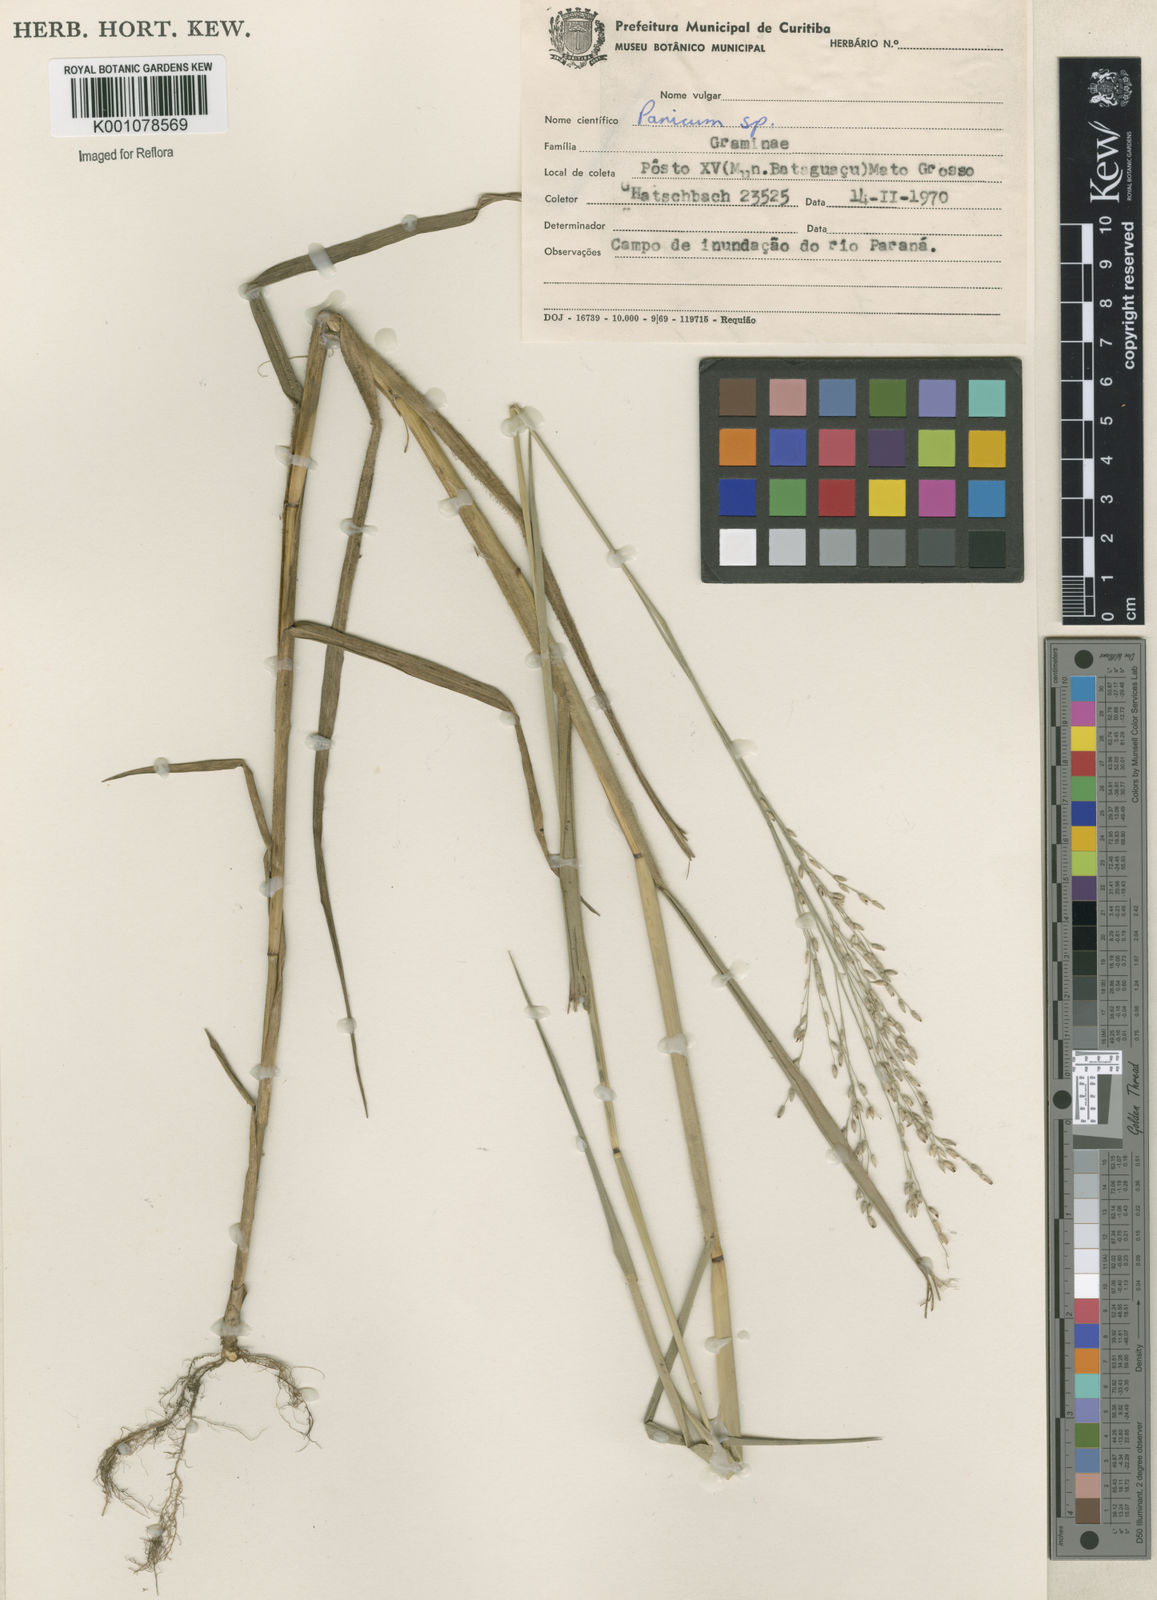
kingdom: Plantae
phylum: Tracheophyta
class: Liliopsida
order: Poales
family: Poaceae
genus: Panicum
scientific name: Panicum dichotomiflorum
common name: Autumn millet
